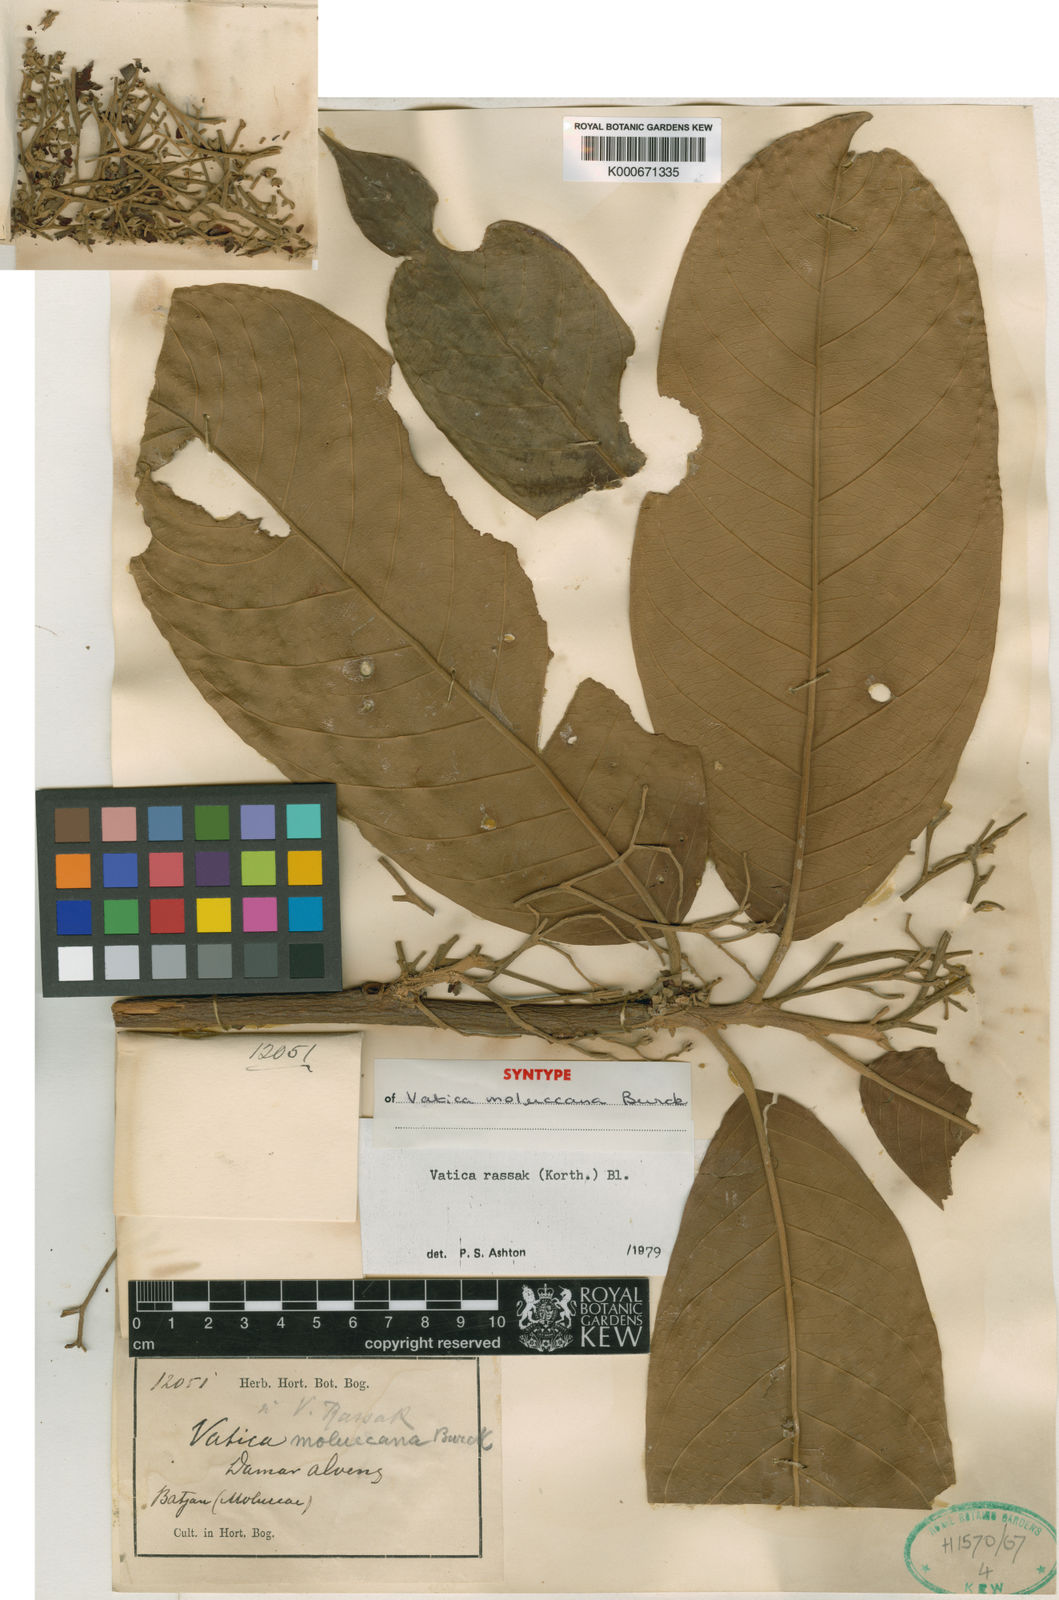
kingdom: Plantae
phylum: Tracheophyta
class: Magnoliopsida
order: Malvales
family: Dipterocarpaceae
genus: Vatica
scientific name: Vatica rassak
